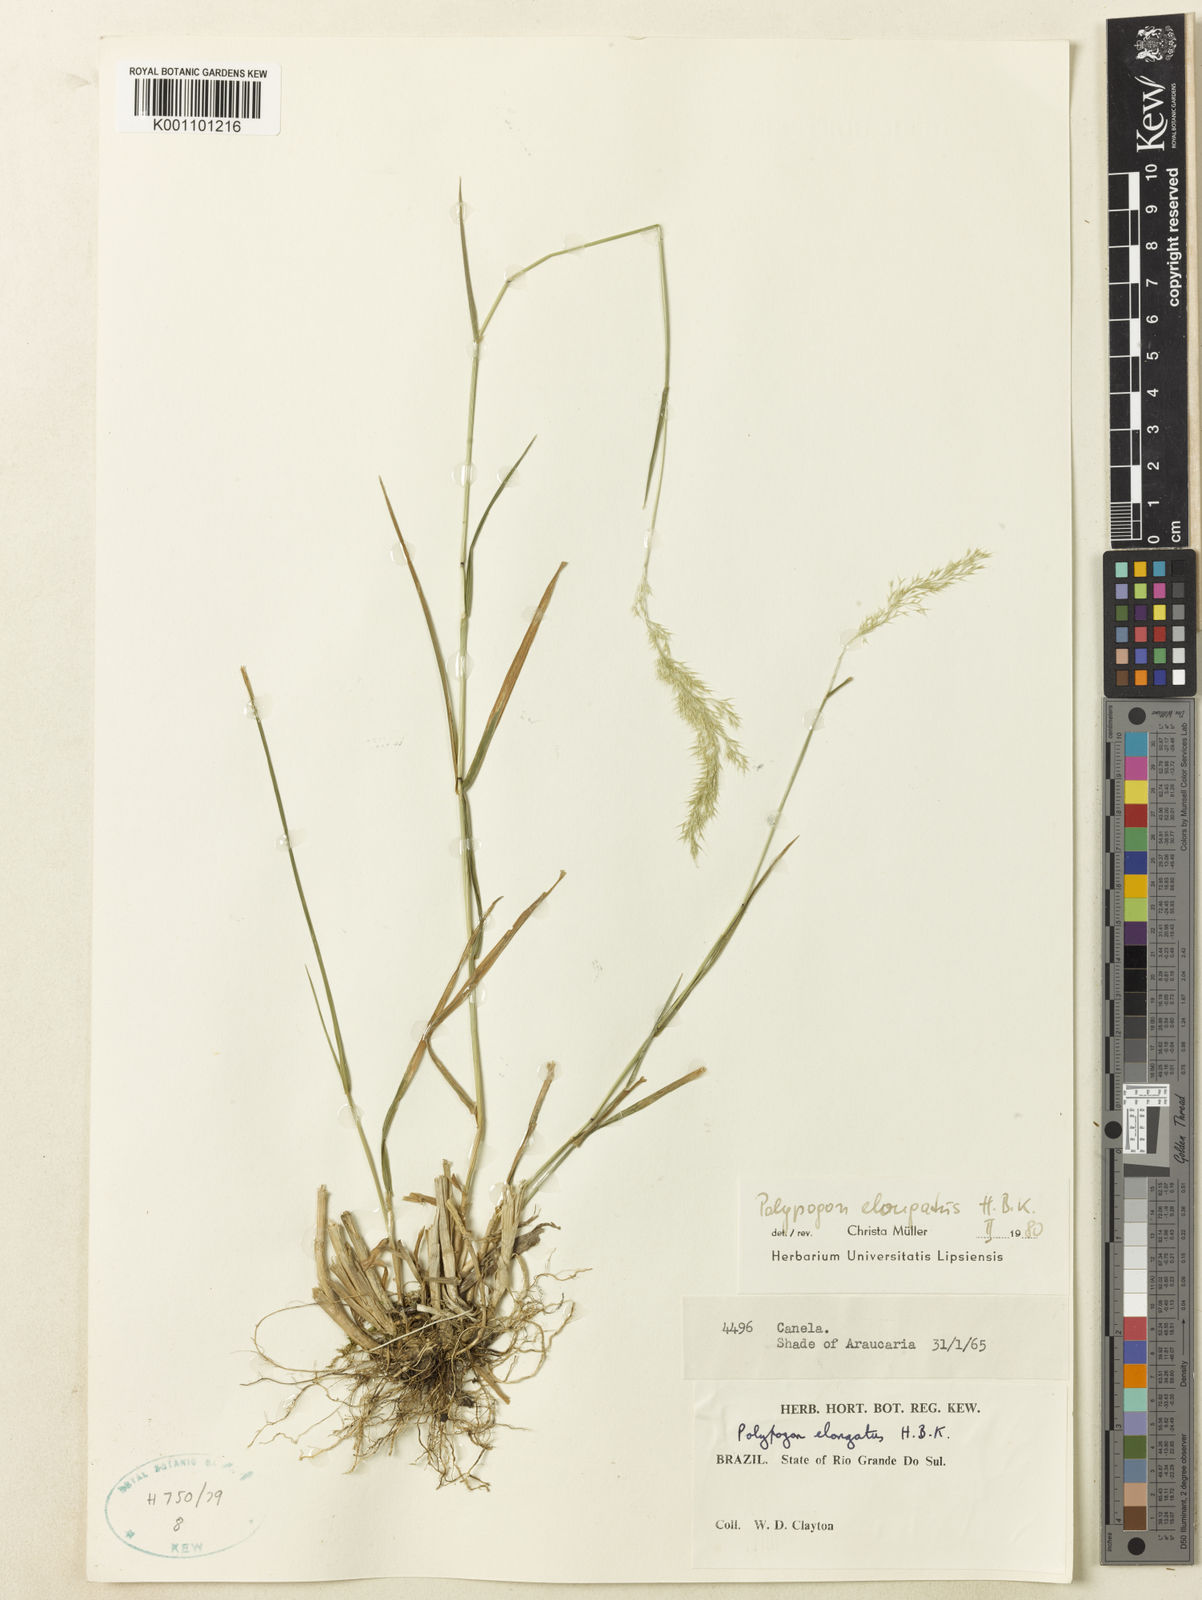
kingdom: Plantae
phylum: Tracheophyta
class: Liliopsida
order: Poales
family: Poaceae
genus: Polypogon
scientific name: Polypogon elongatus
